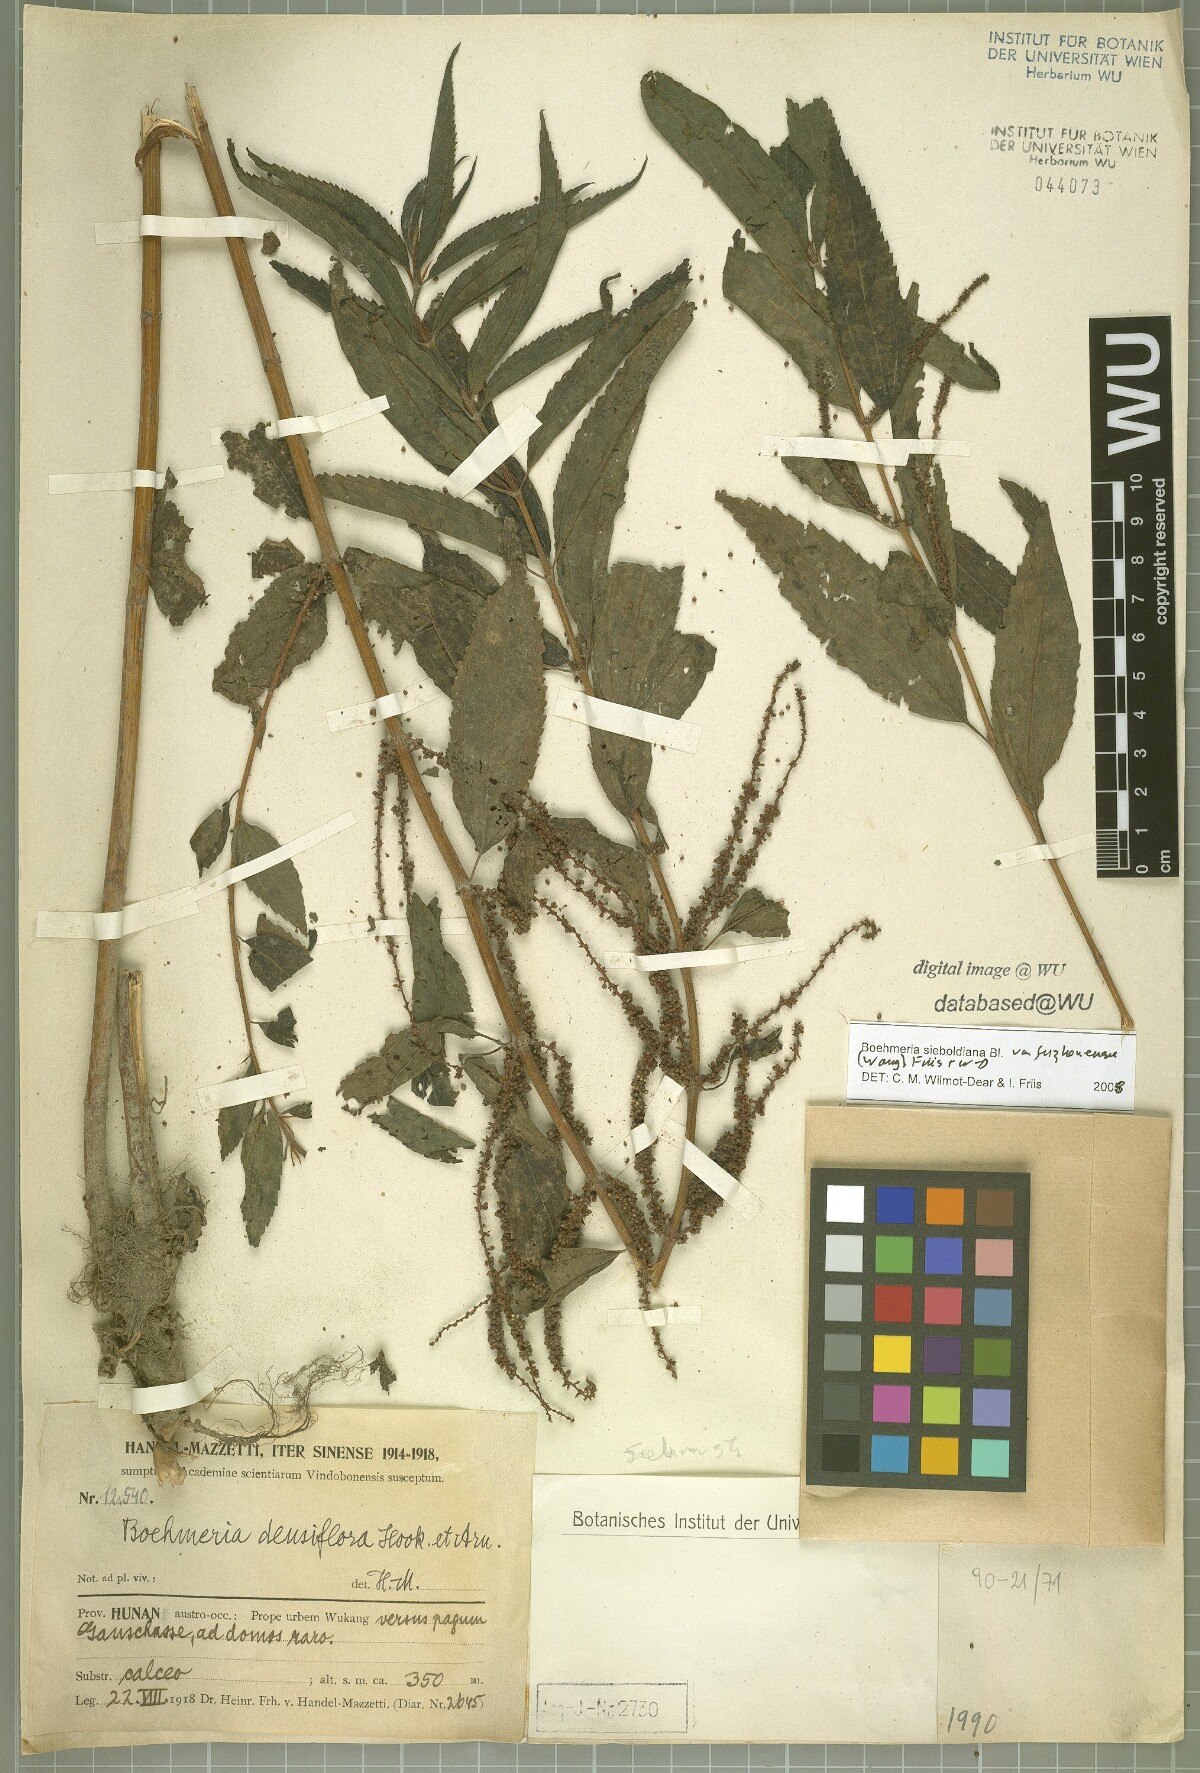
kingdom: Plantae
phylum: Tracheophyta
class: Magnoliopsida
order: Rosales
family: Urticaceae
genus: Boehmeria
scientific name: Boehmeria sieboldiana
